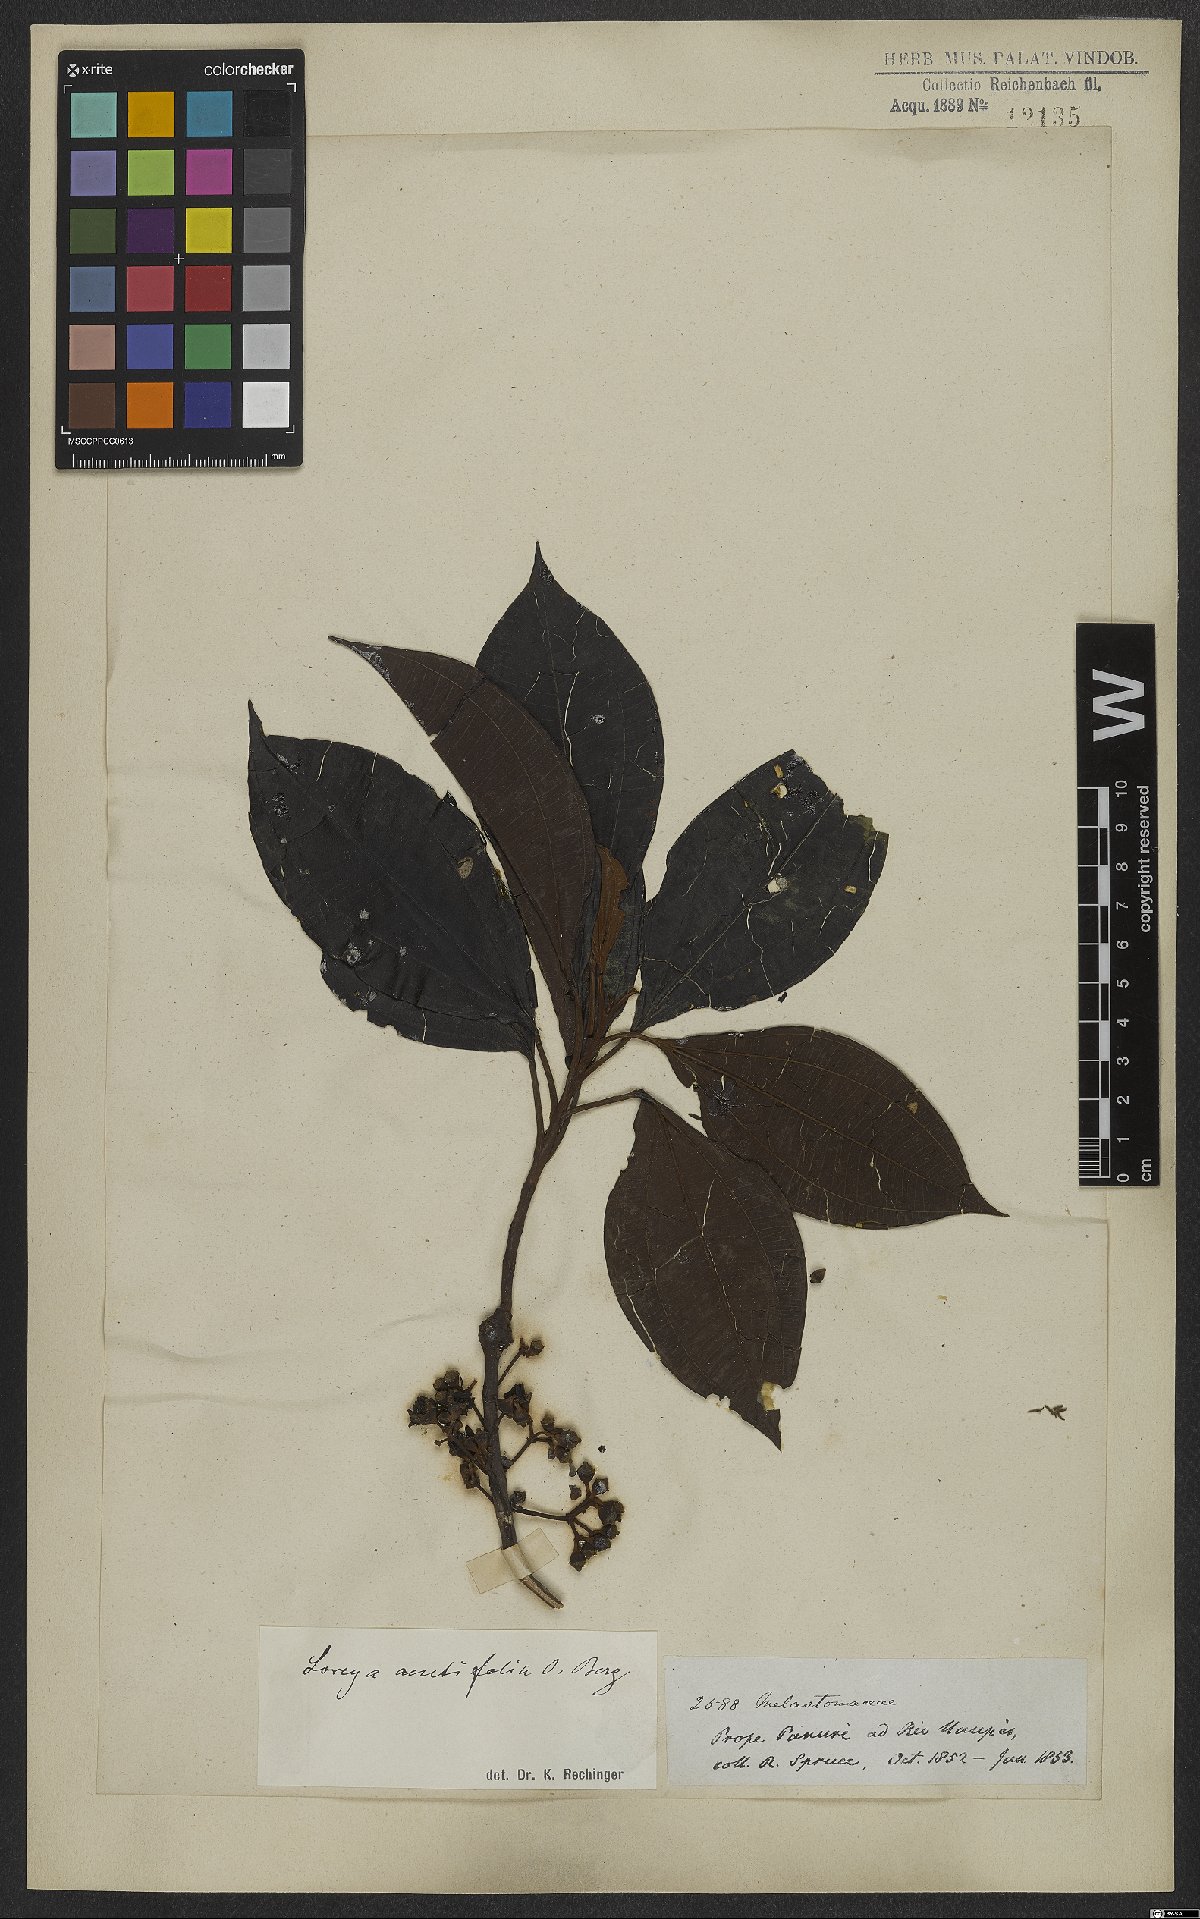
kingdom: Plantae
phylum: Tracheophyta
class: Magnoliopsida
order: Myrtales
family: Melastomataceae
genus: Bellucia
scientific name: Bellucia arborescens
